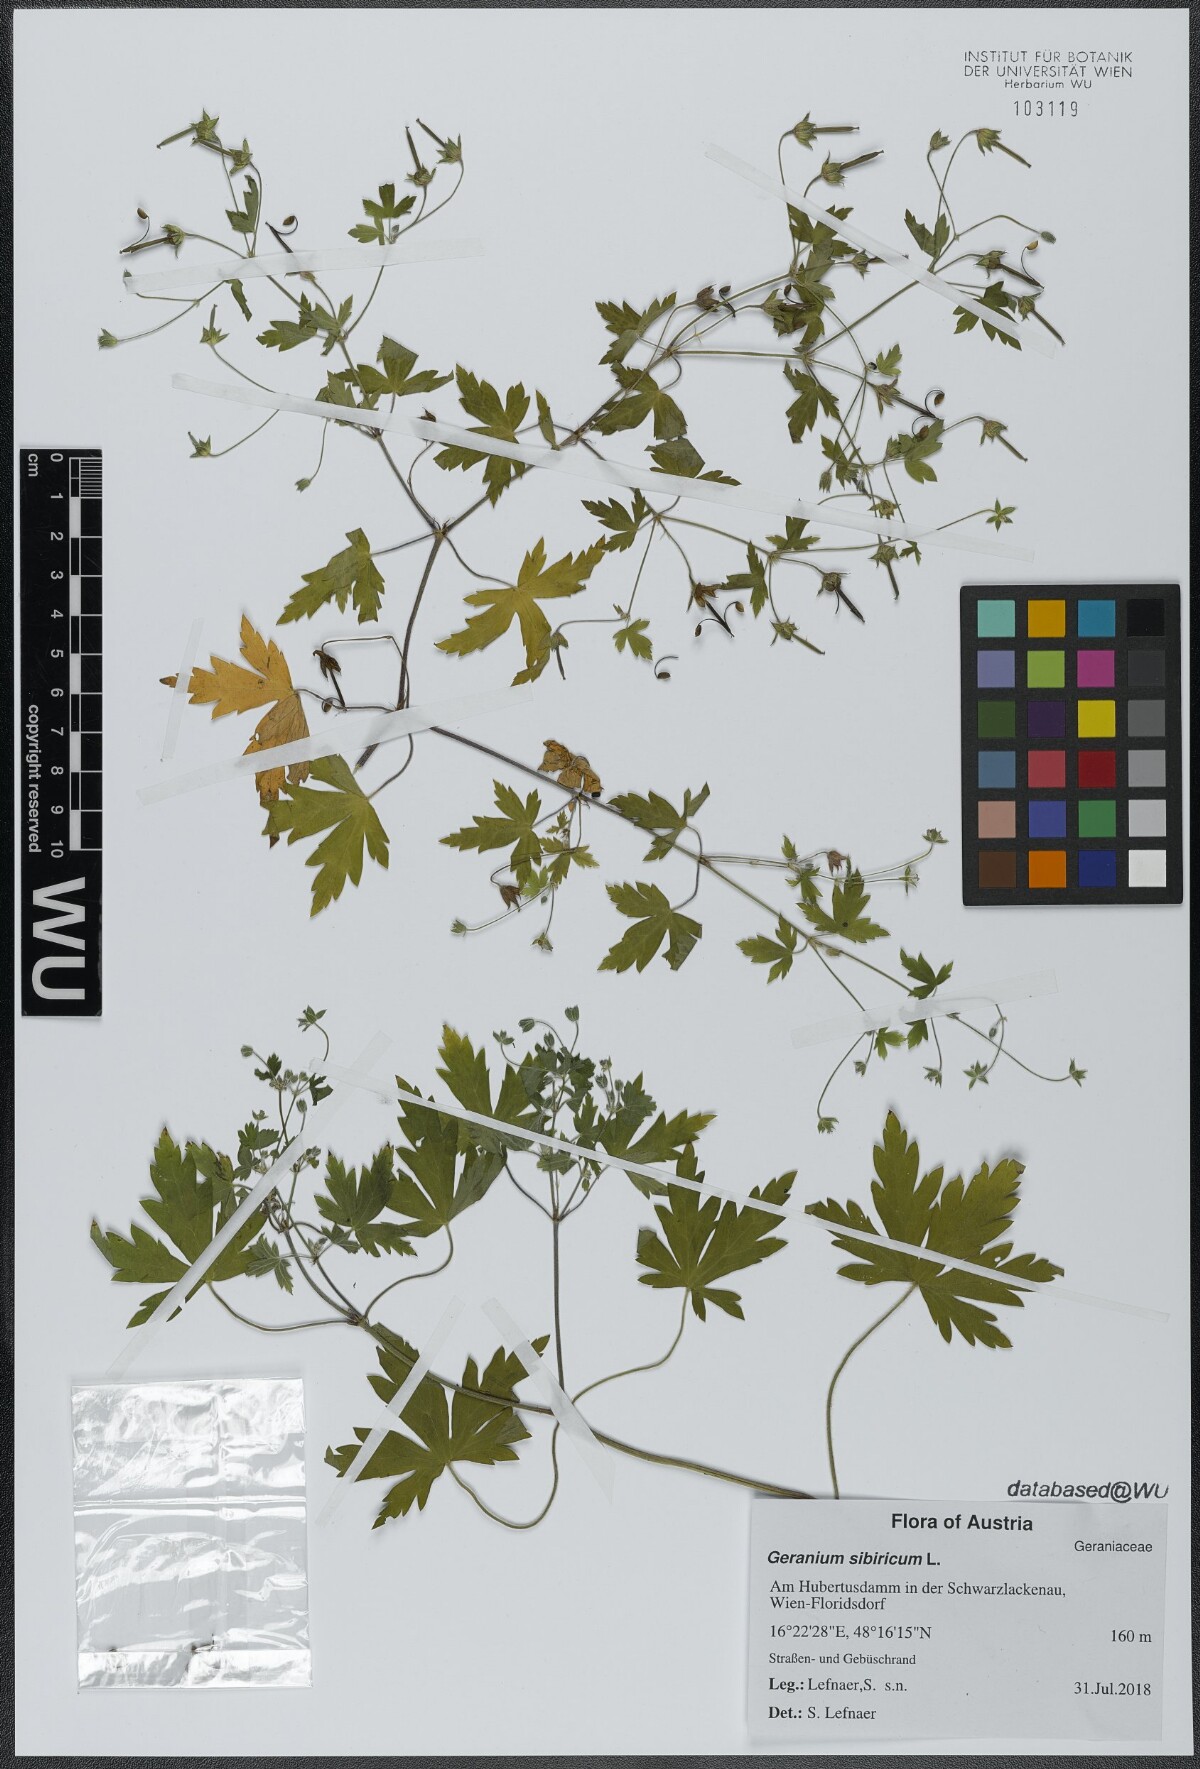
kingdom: Plantae
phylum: Tracheophyta
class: Magnoliopsida
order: Geraniales
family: Geraniaceae
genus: Geranium
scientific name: Geranium sibiricum
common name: Siberian crane's-bill
